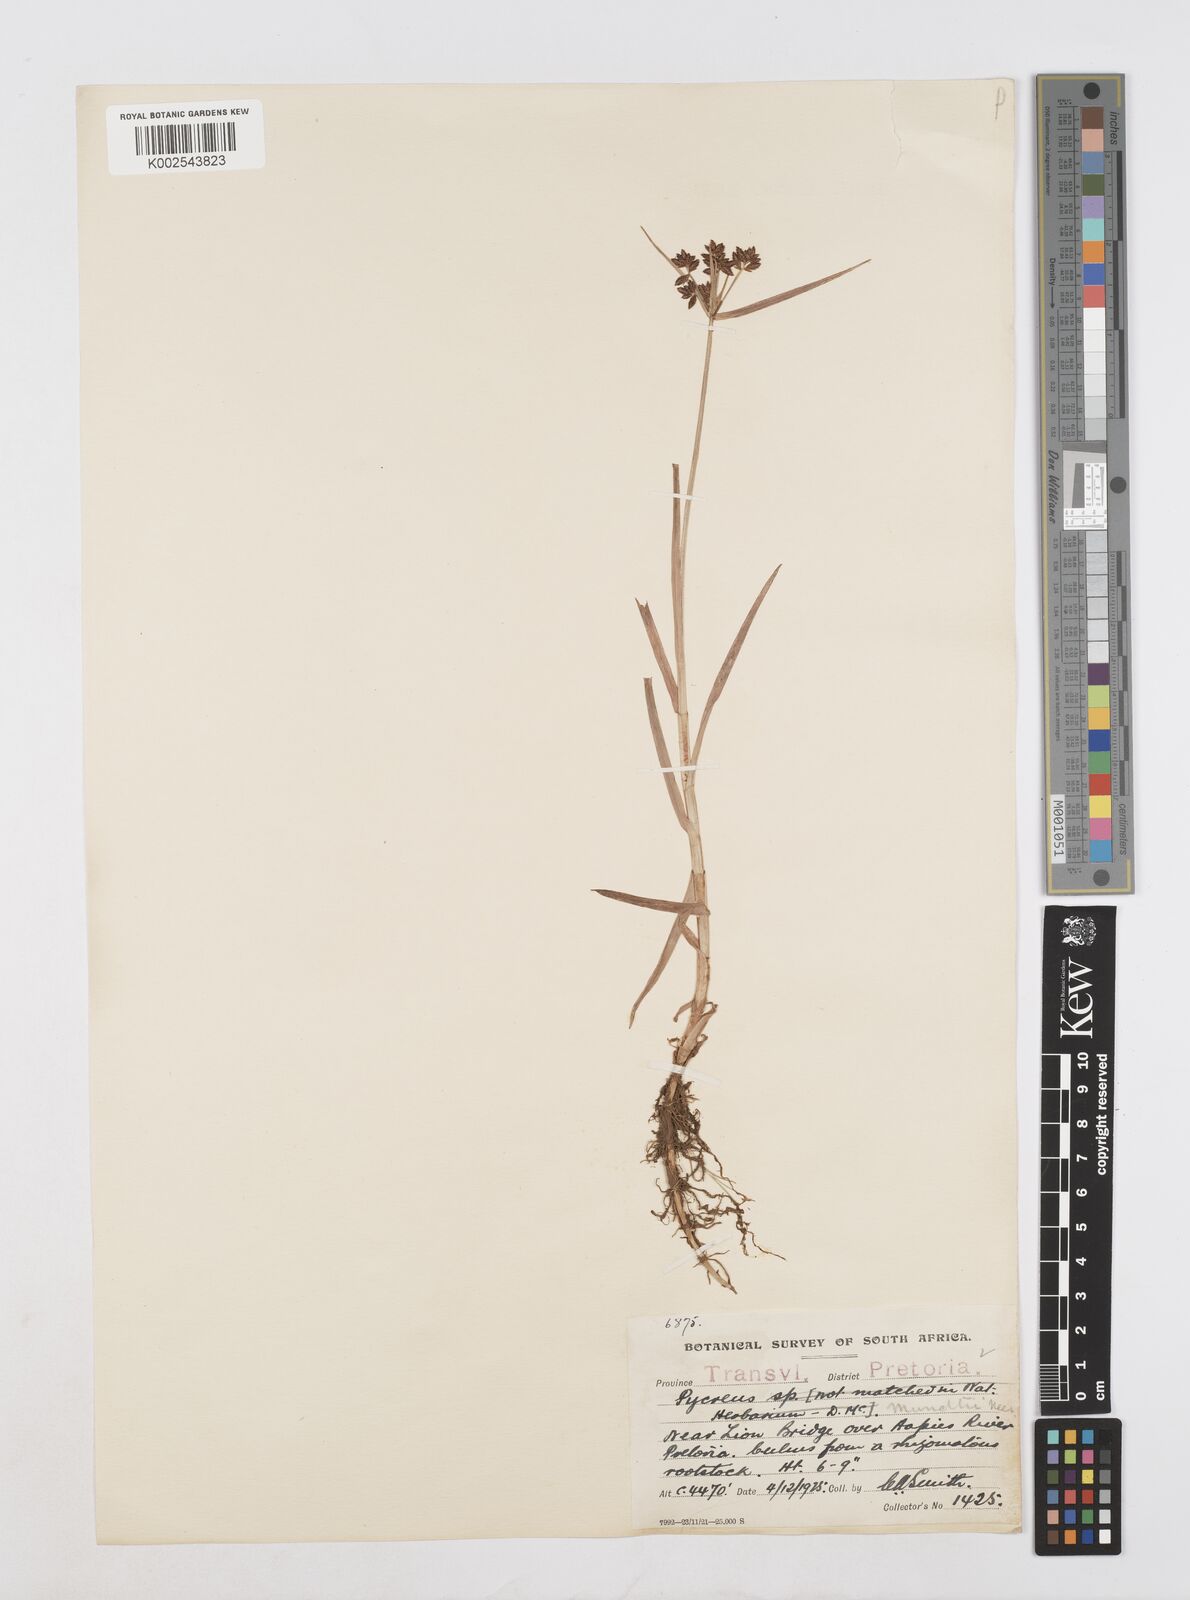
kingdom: Plantae
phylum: Tracheophyta
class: Liliopsida
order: Poales
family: Cyperaceae
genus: Cyperus
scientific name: Cyperus mundii
